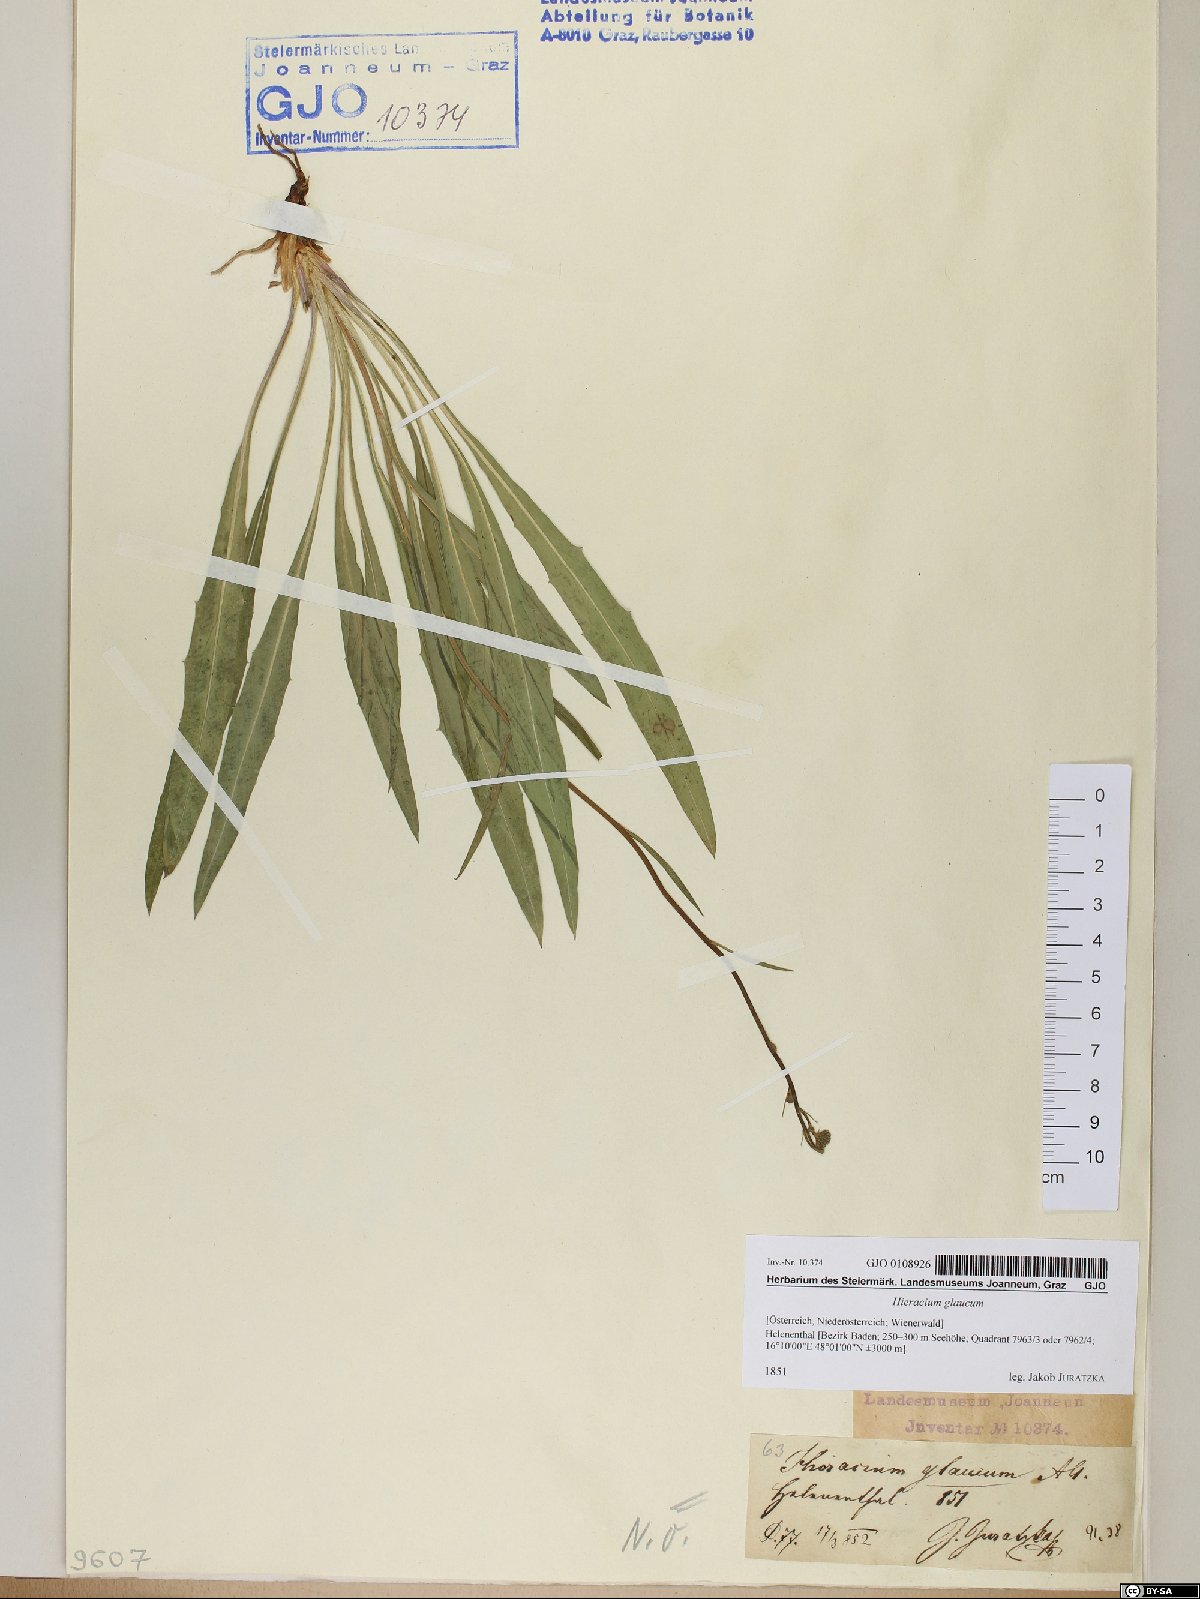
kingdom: Plantae
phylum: Tracheophyta
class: Magnoliopsida
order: Asterales
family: Asteraceae
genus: Hieracium
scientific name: Hieracium glaucum
